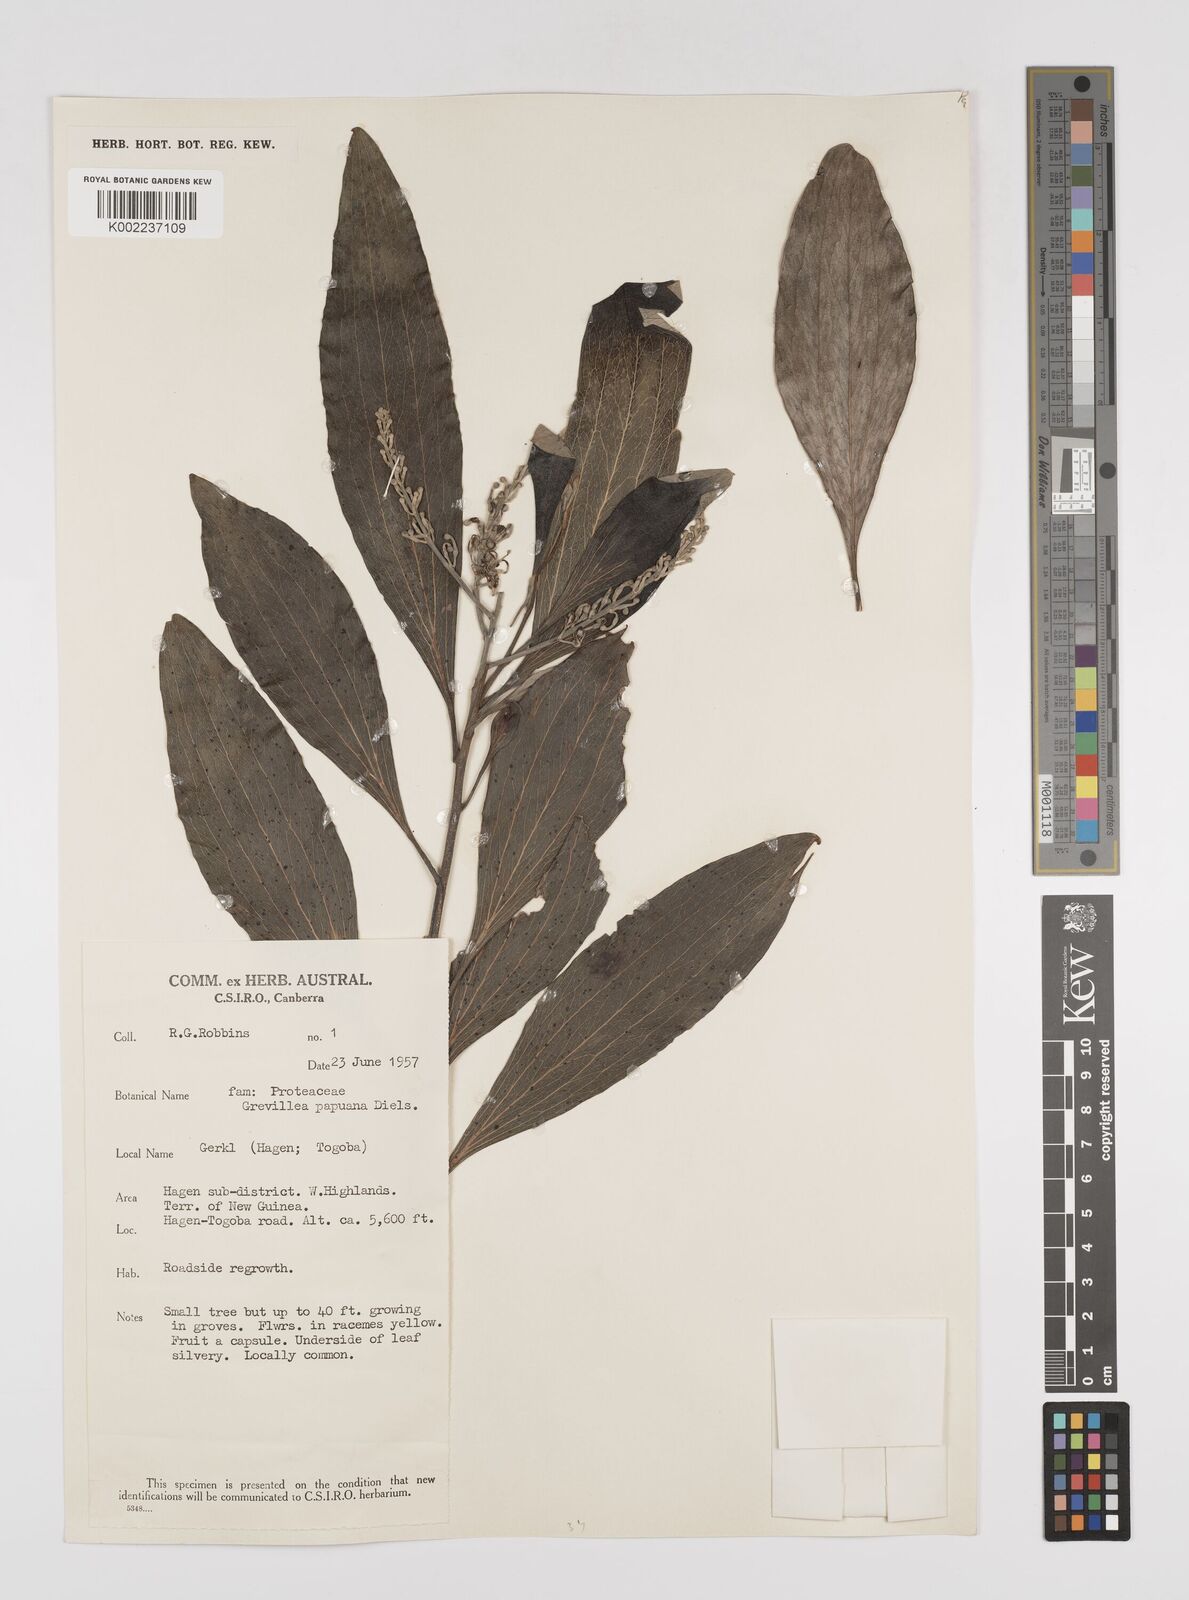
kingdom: Plantae
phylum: Tracheophyta
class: Magnoliopsida
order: Proteales
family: Proteaceae
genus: Grevillea
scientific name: Grevillea papuana
